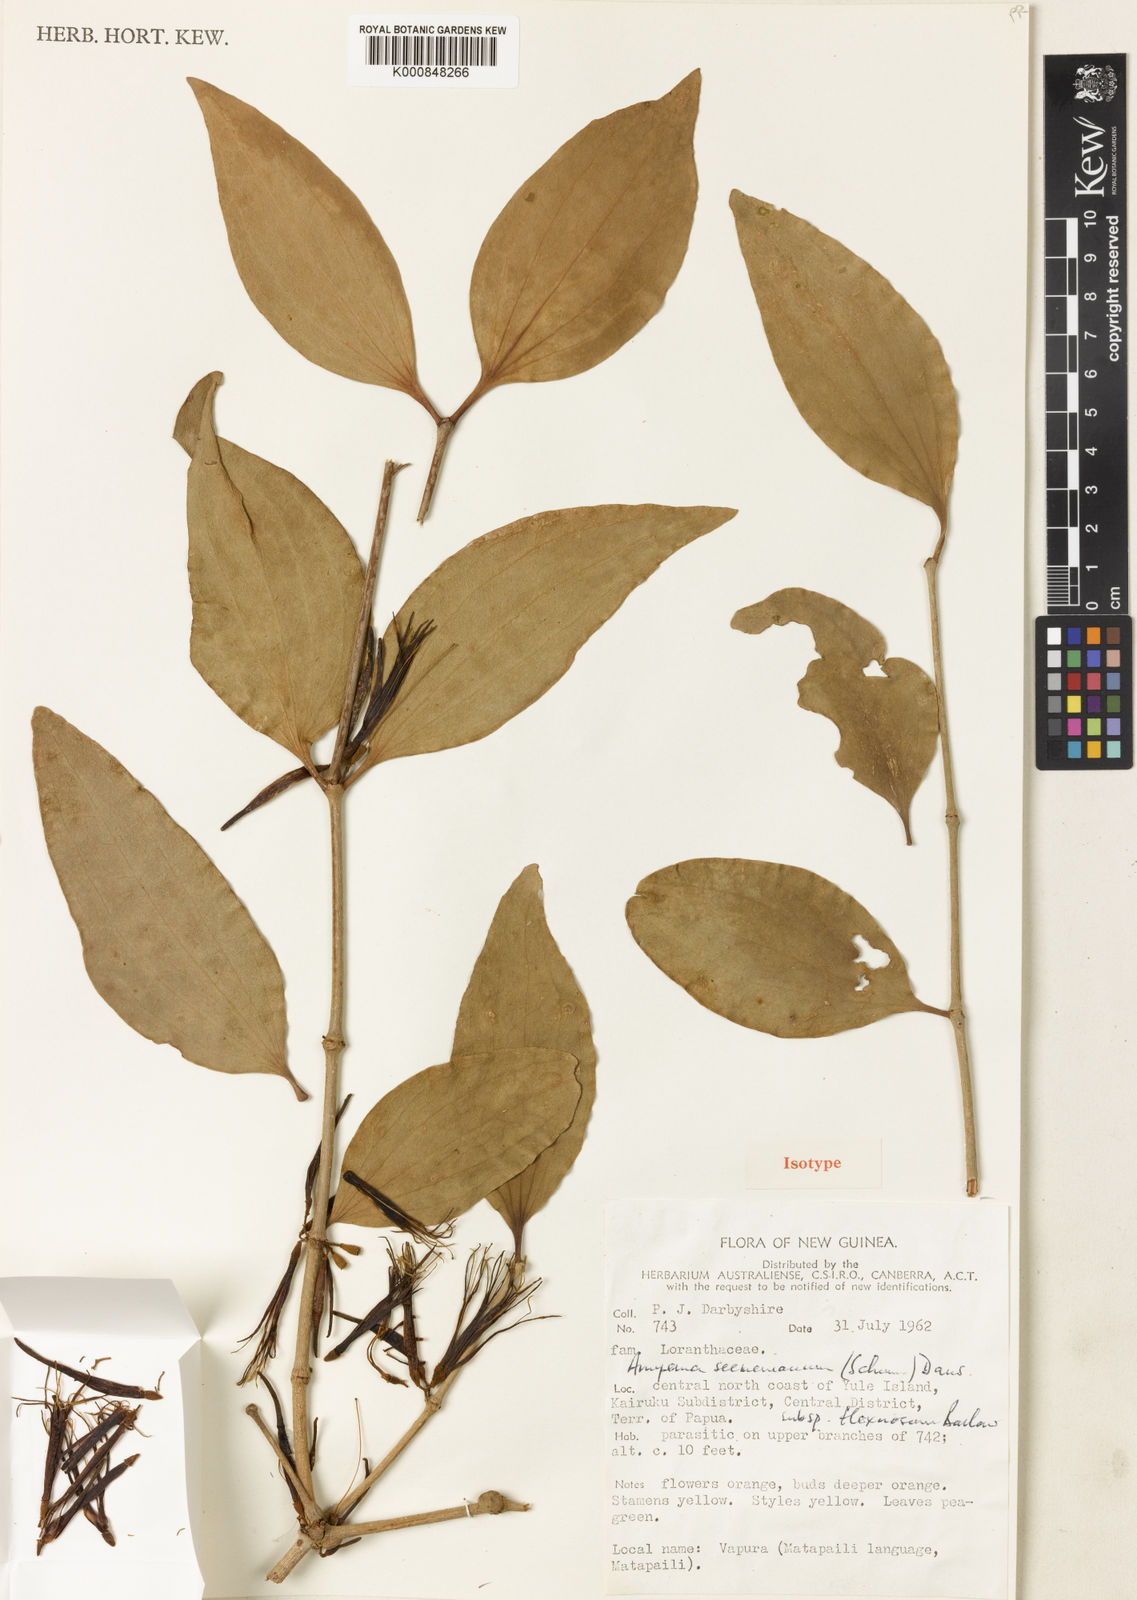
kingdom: Plantae
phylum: Tracheophyta
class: Magnoliopsida
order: Santalales
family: Loranthaceae
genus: Amyema
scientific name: Amyema seemeniana
